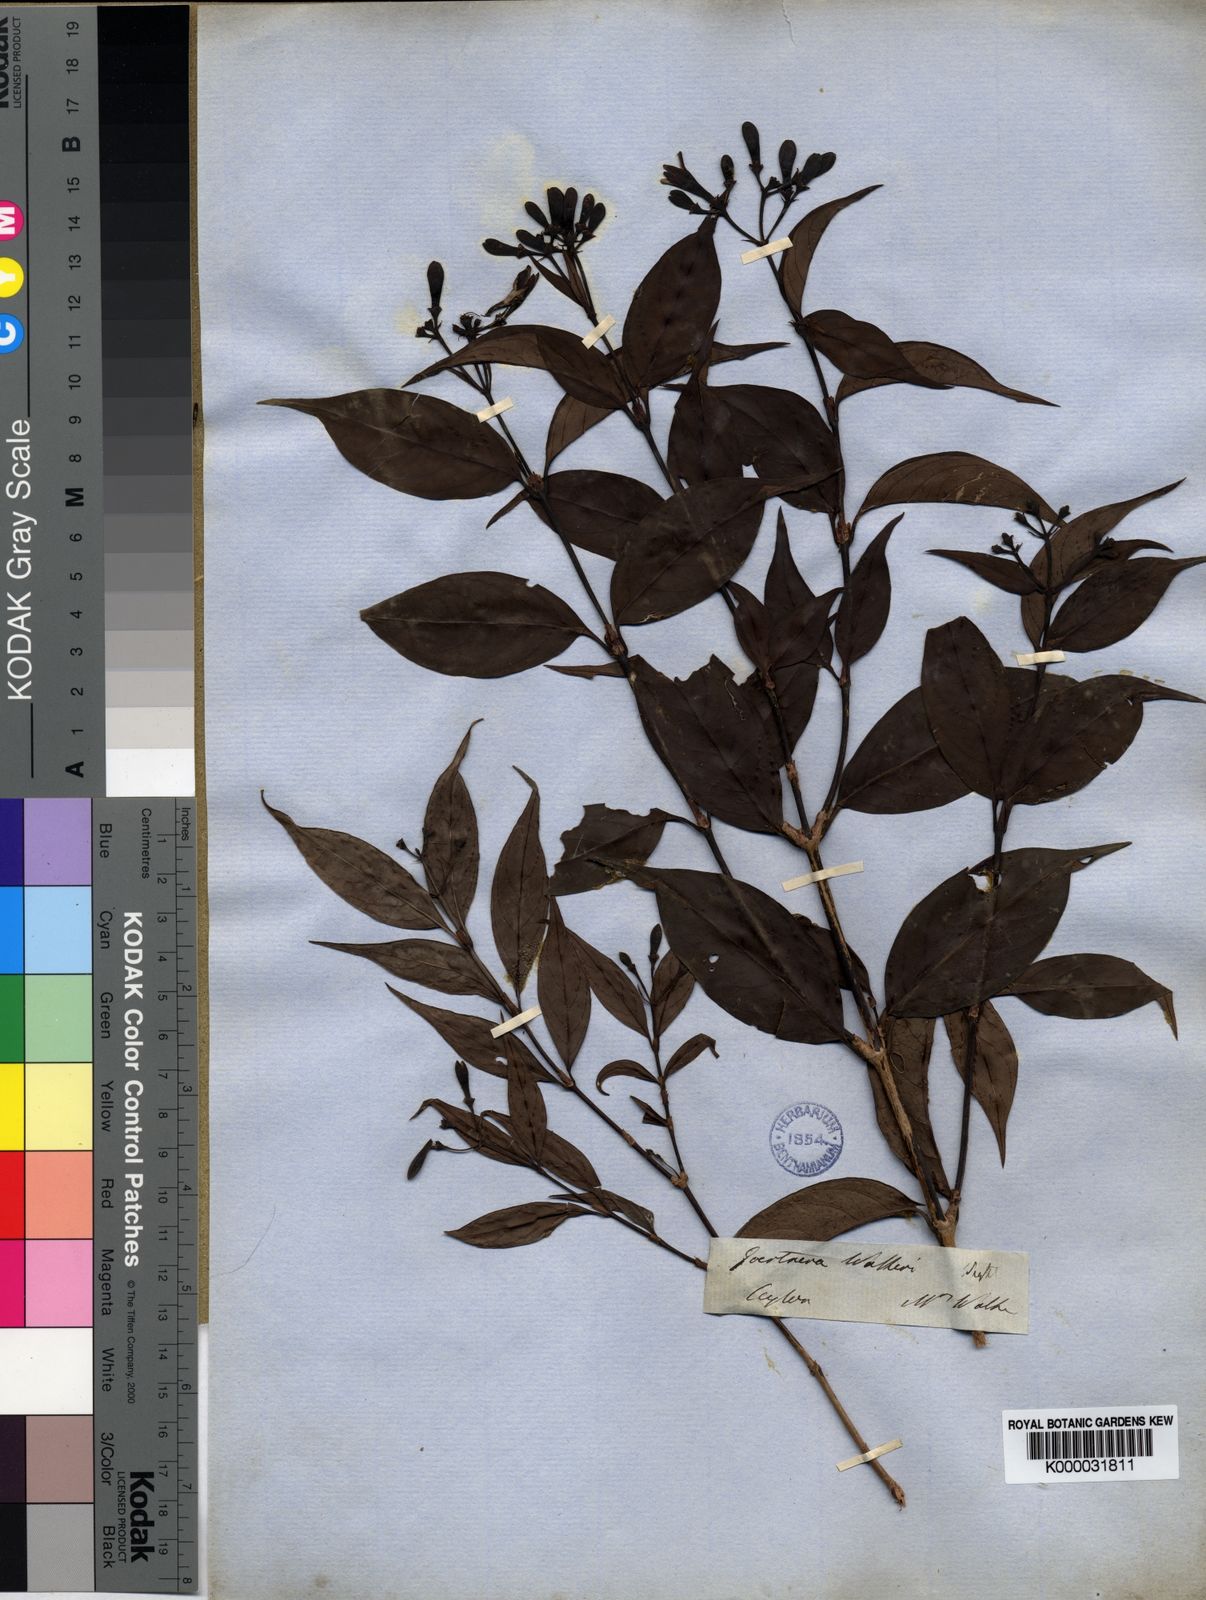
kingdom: Plantae
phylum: Tracheophyta
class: Magnoliopsida
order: Gentianales
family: Rubiaceae
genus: Gaertnera
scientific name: Gaertnera
